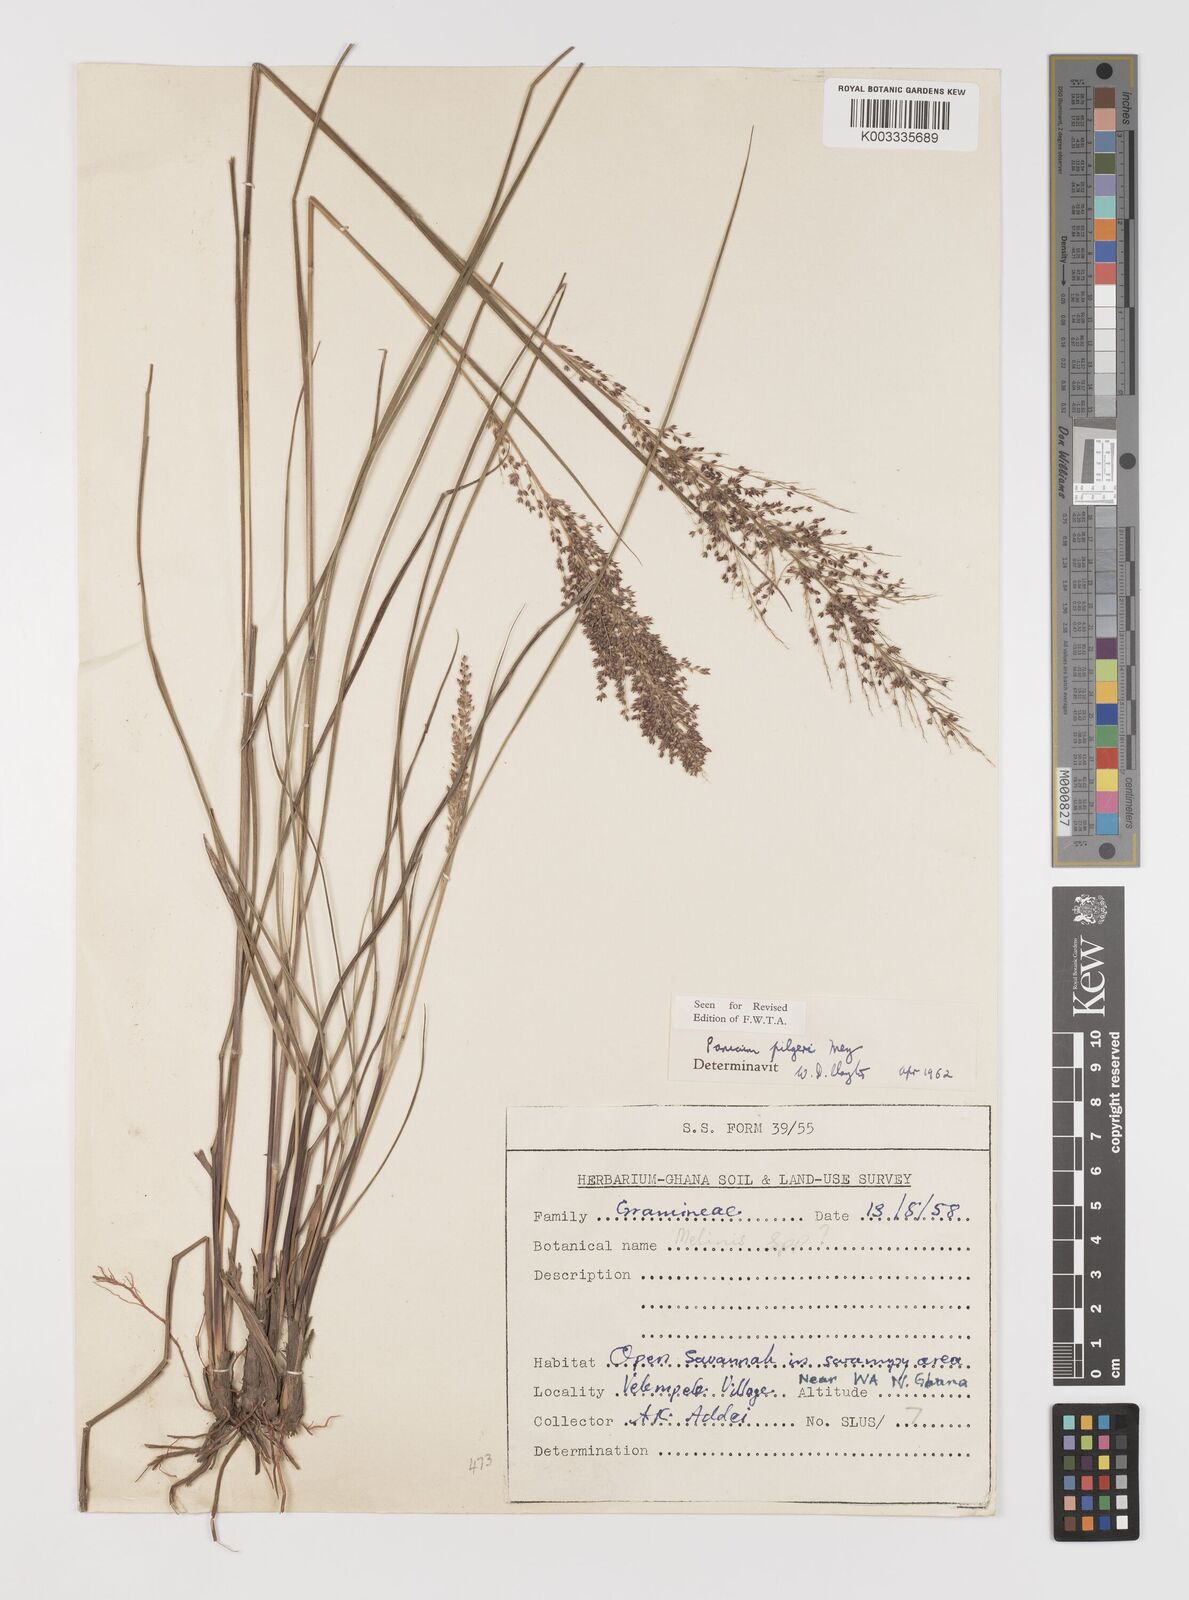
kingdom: Plantae
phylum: Tracheophyta
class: Liliopsida
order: Poales
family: Poaceae
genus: Panicum
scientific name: Panicum
